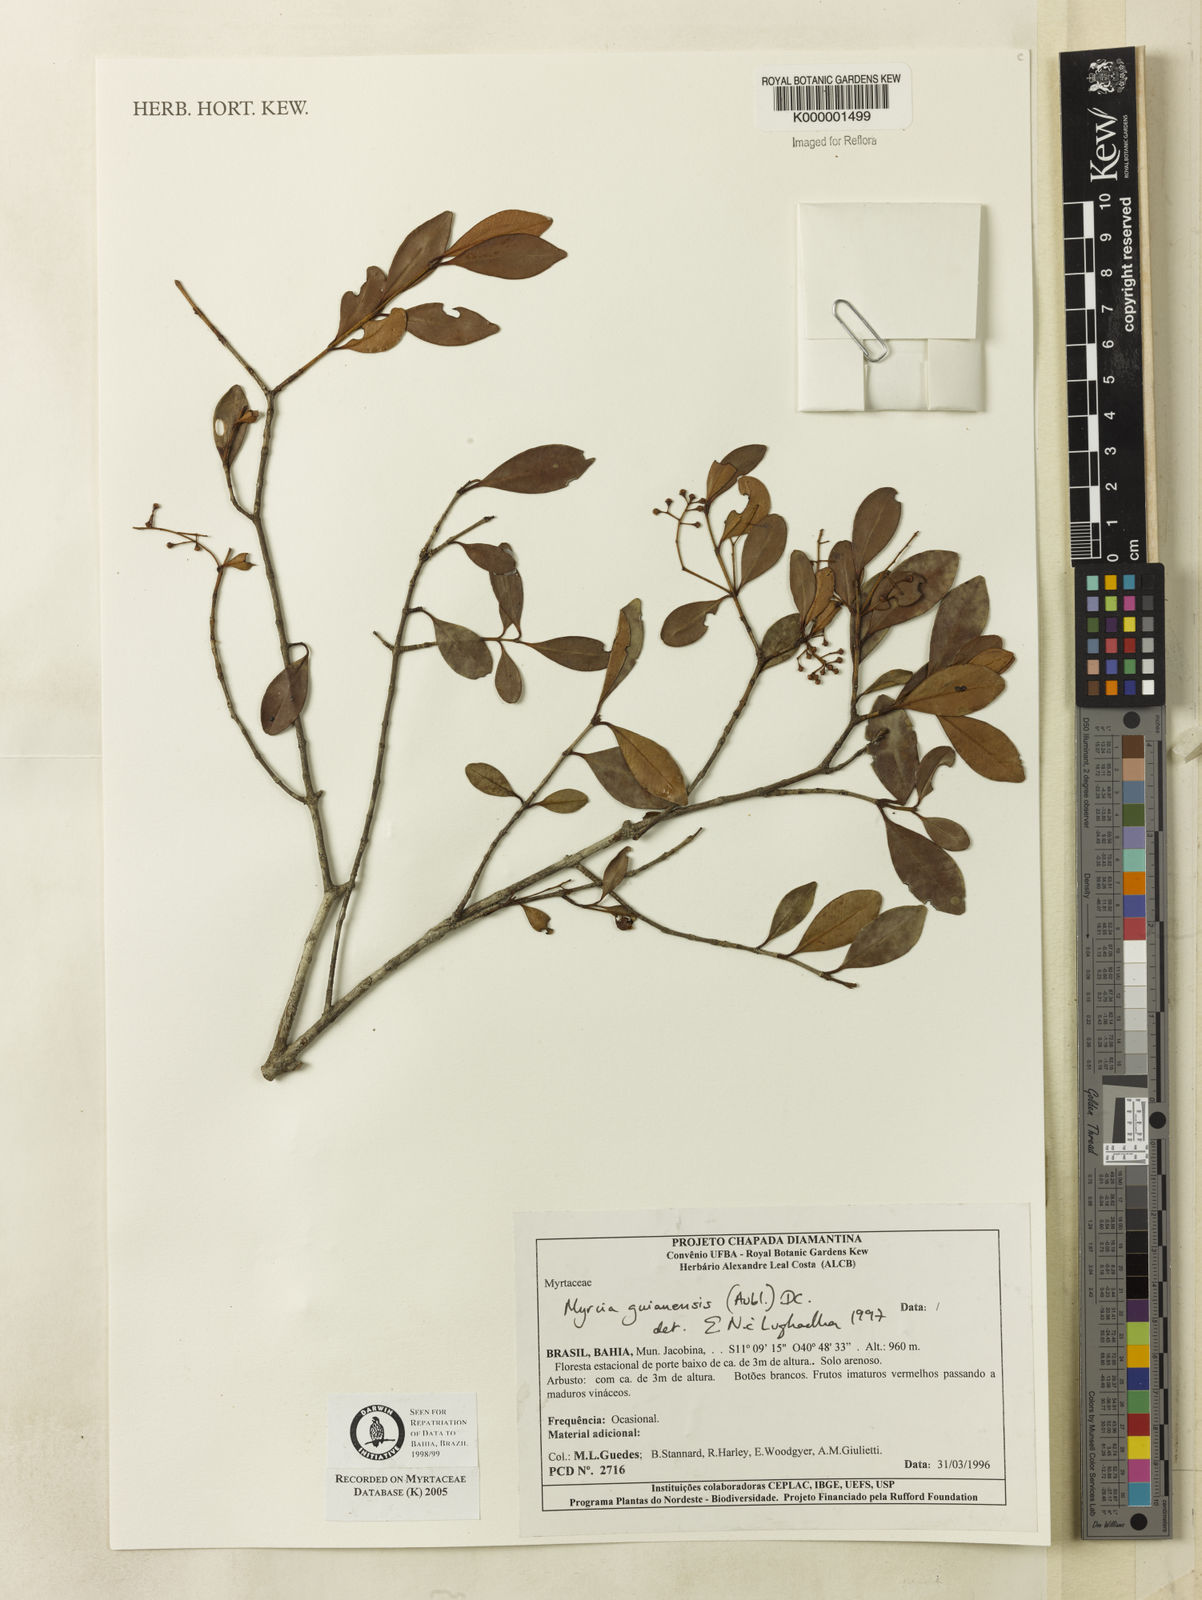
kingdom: Plantae
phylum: Tracheophyta
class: Magnoliopsida
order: Myrtales
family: Myrtaceae
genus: Myrcia
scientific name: Myrcia guianensis
